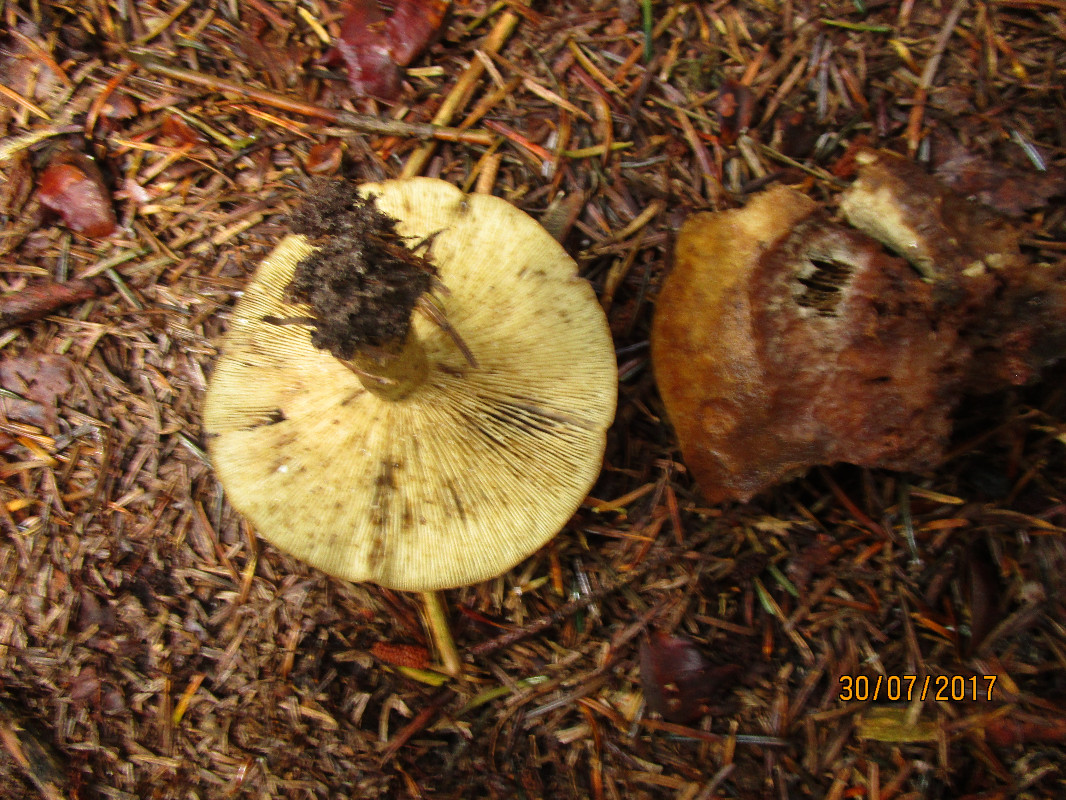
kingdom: Fungi
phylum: Basidiomycota
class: Agaricomycetes
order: Russulales
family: Russulaceae
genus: Lactarius
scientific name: Lactarius necator
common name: manddraber-mælkehat
